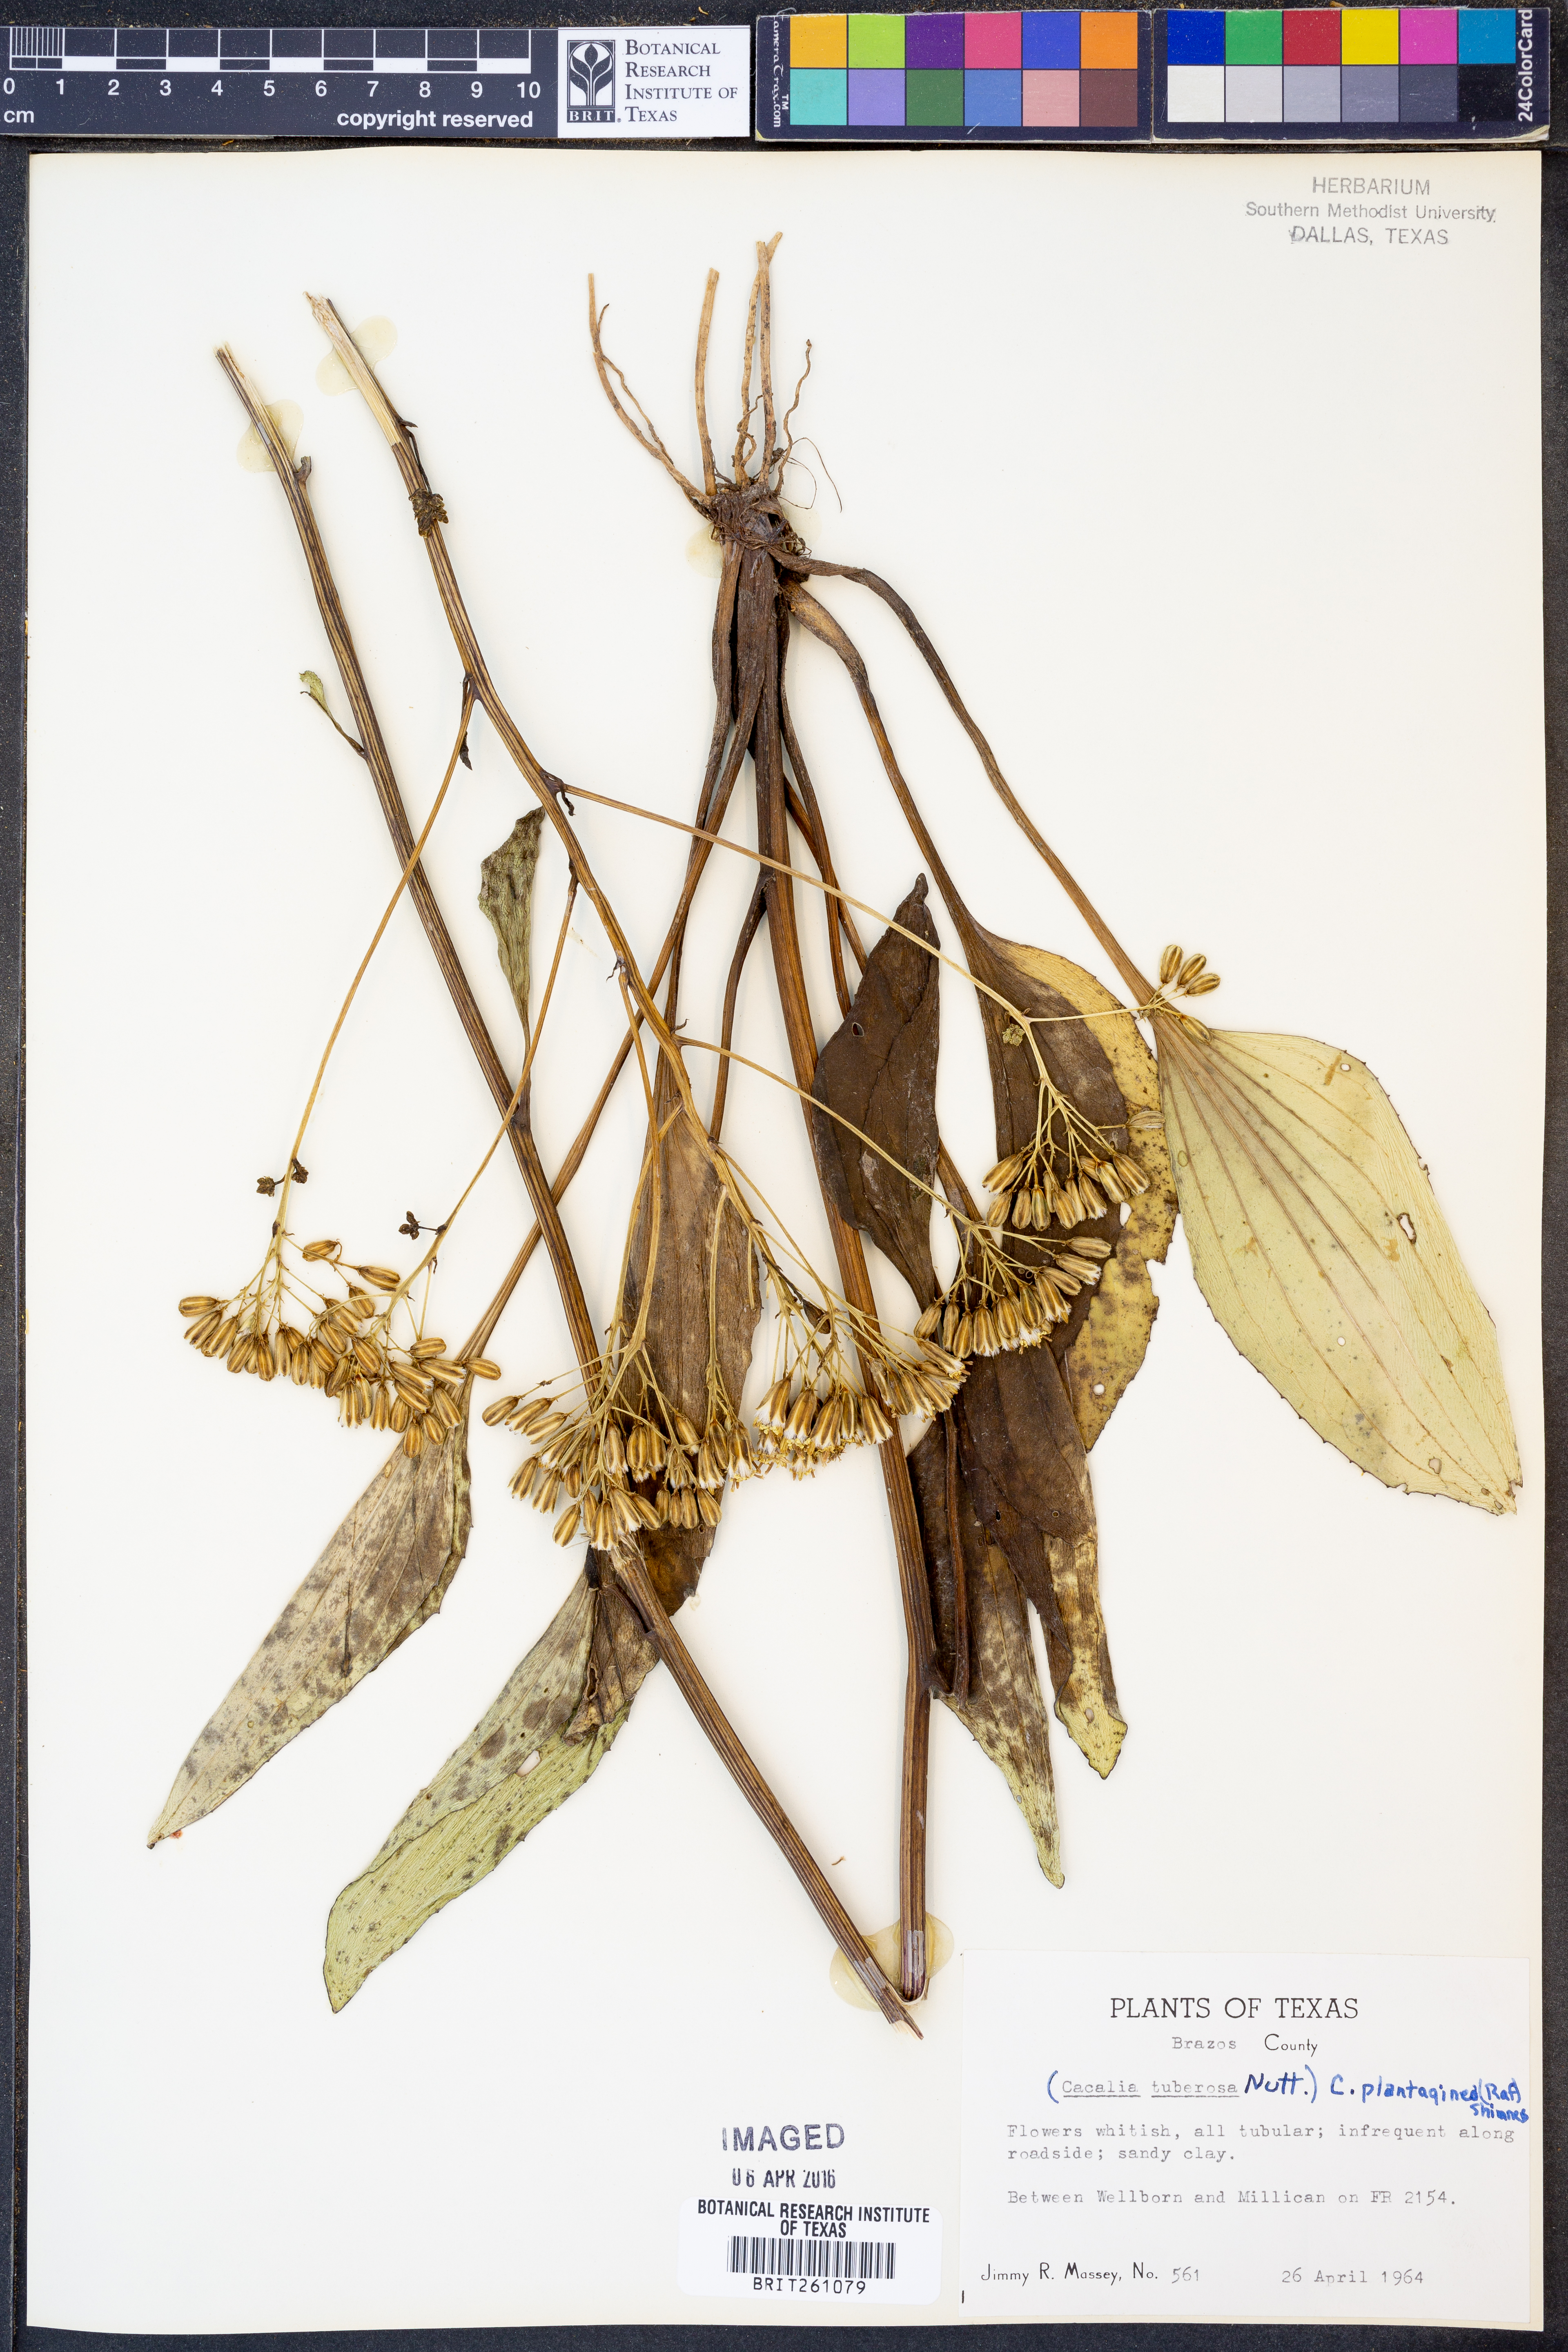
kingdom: Plantae
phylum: Tracheophyta
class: Magnoliopsida
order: Asterales
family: Asteraceae
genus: Arnoglossum
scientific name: Arnoglossum plantagineum
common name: Groove-stemmed indian-plantain
